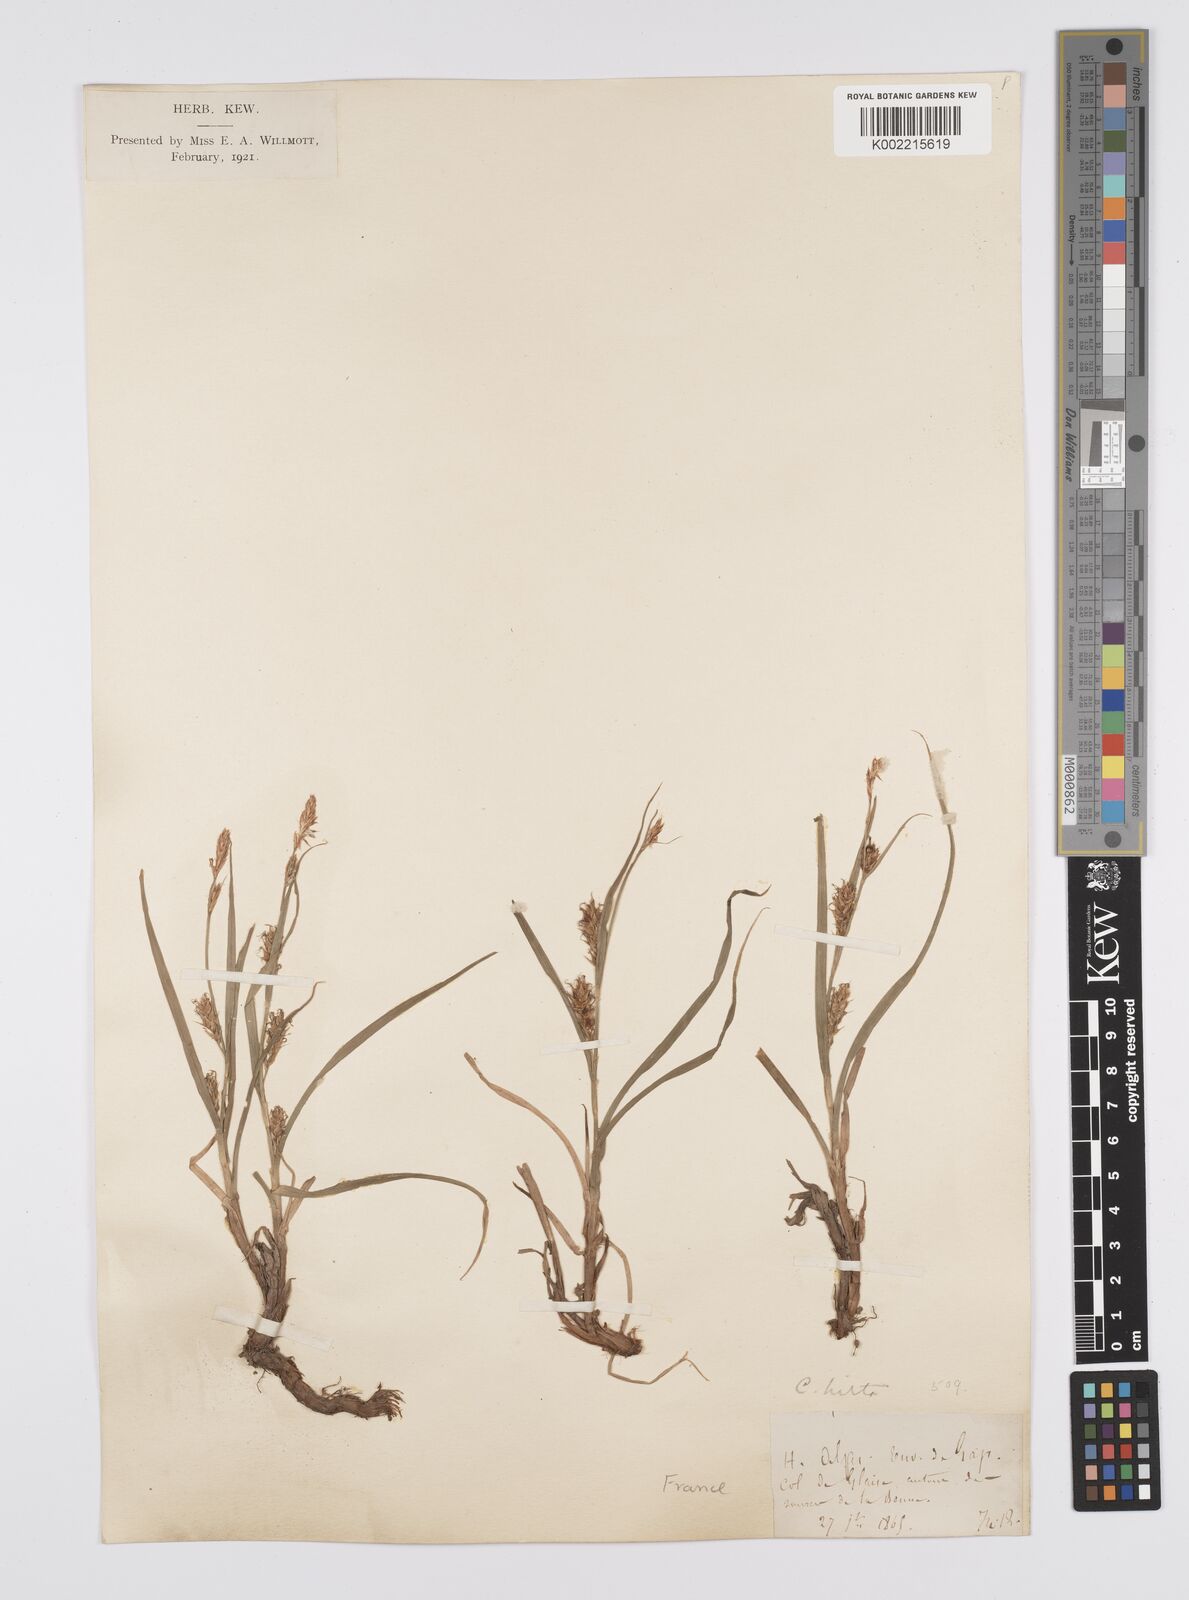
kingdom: Plantae
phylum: Tracheophyta
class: Liliopsida
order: Poales
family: Cyperaceae
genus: Carex
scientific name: Carex hirta
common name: Hairy sedge
